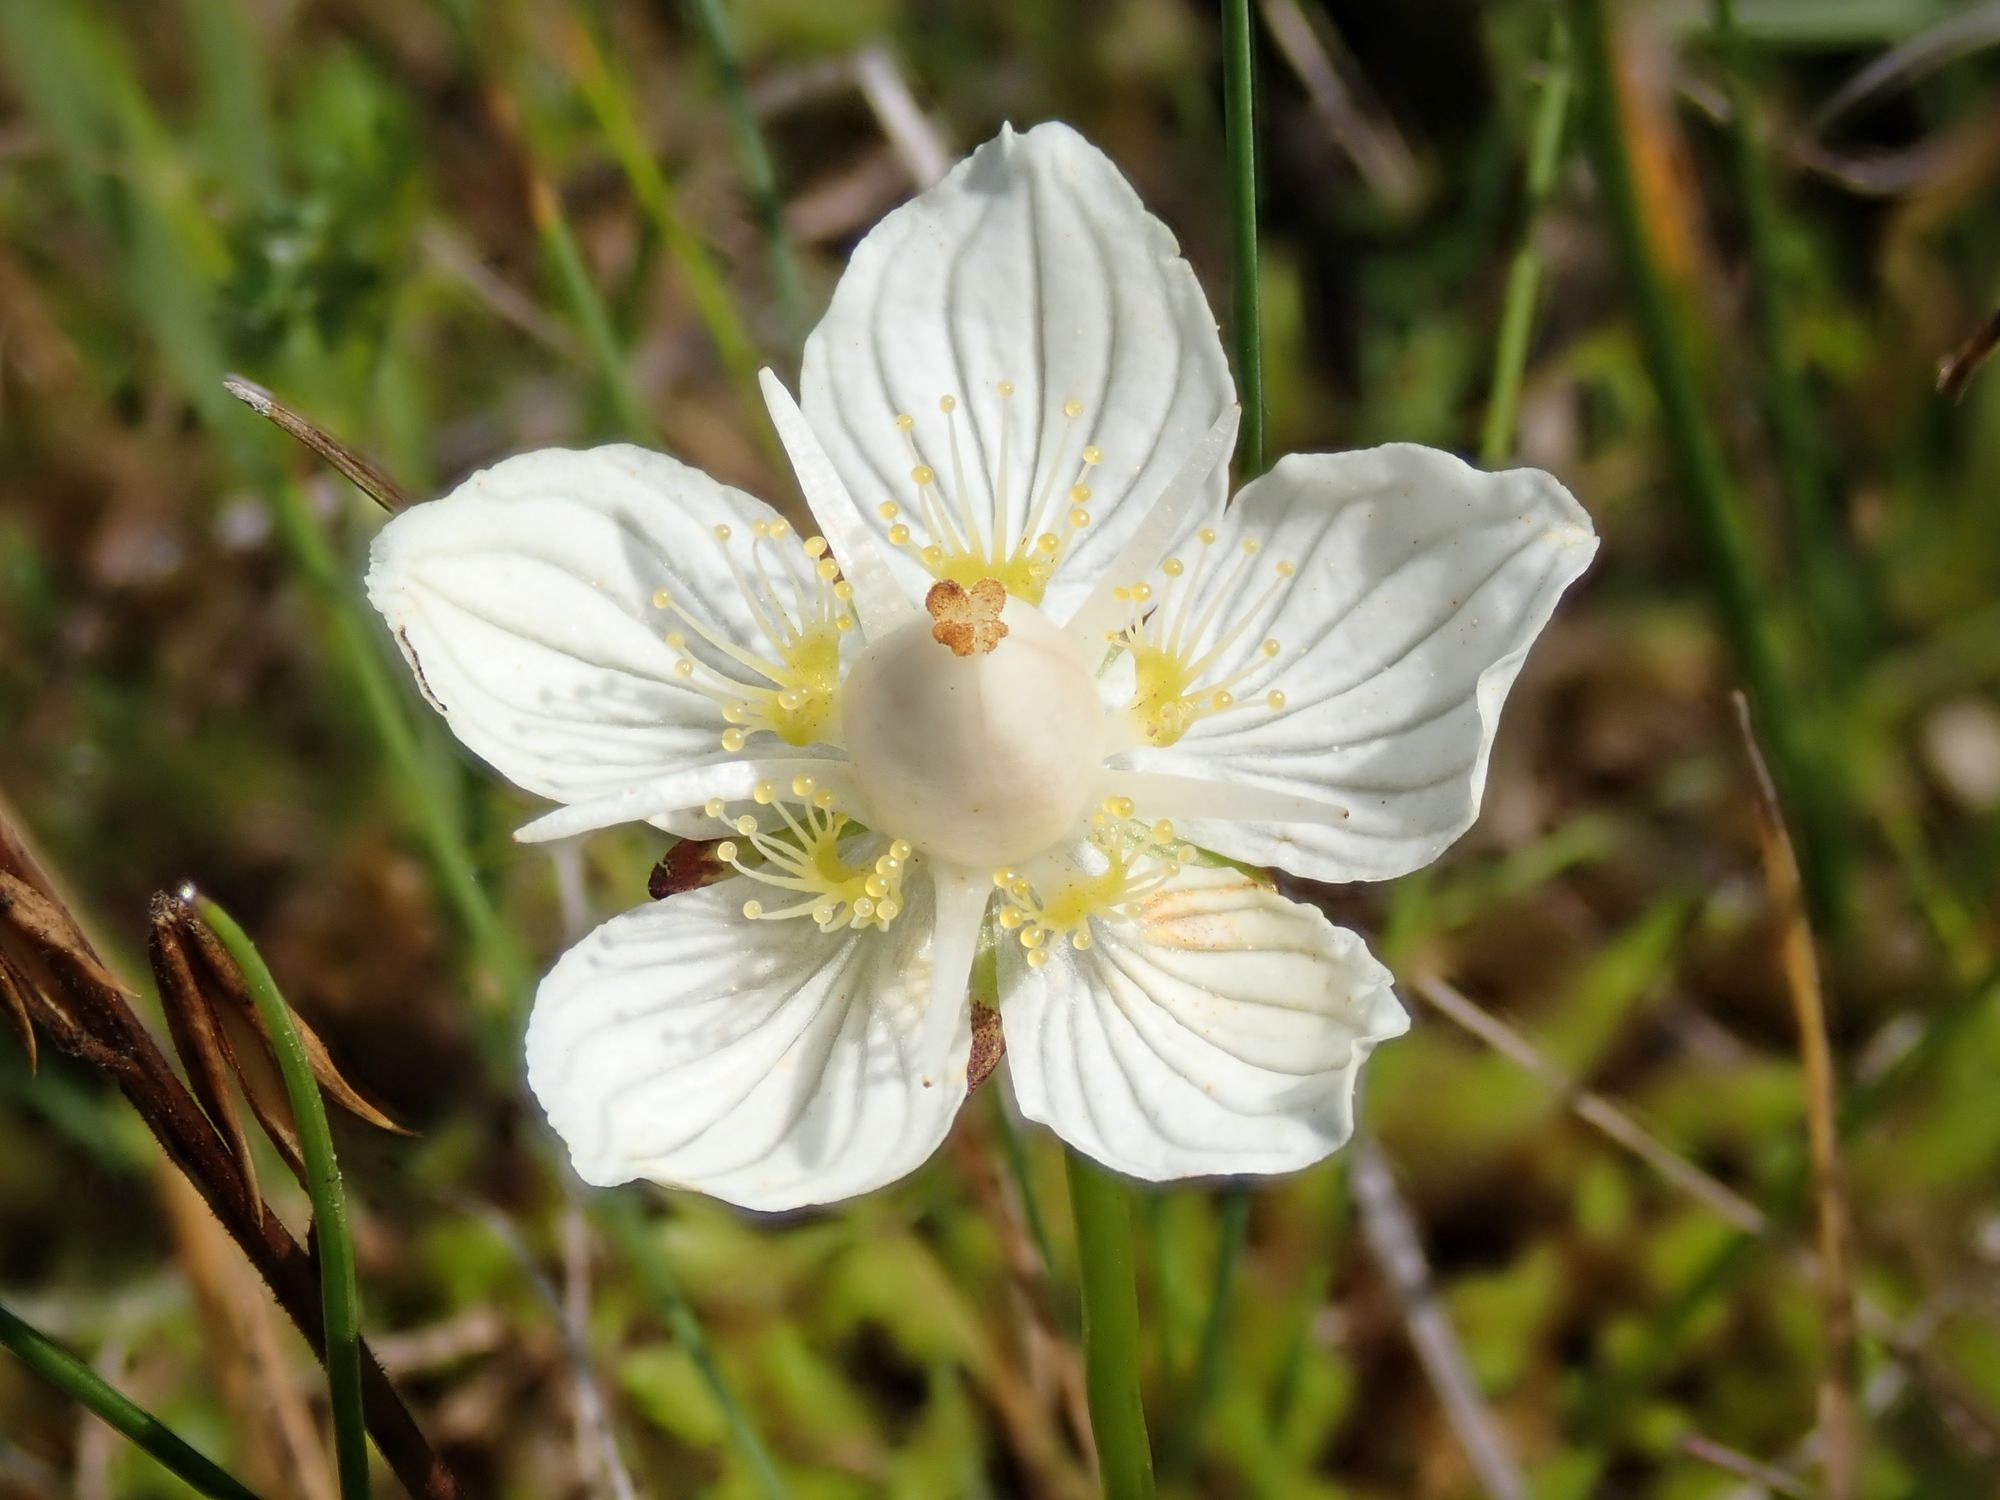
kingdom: Plantae
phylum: Tracheophyta
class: Magnoliopsida
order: Celastrales
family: Parnassiaceae
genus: Parnassia
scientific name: Parnassia palustris
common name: Leverurt
